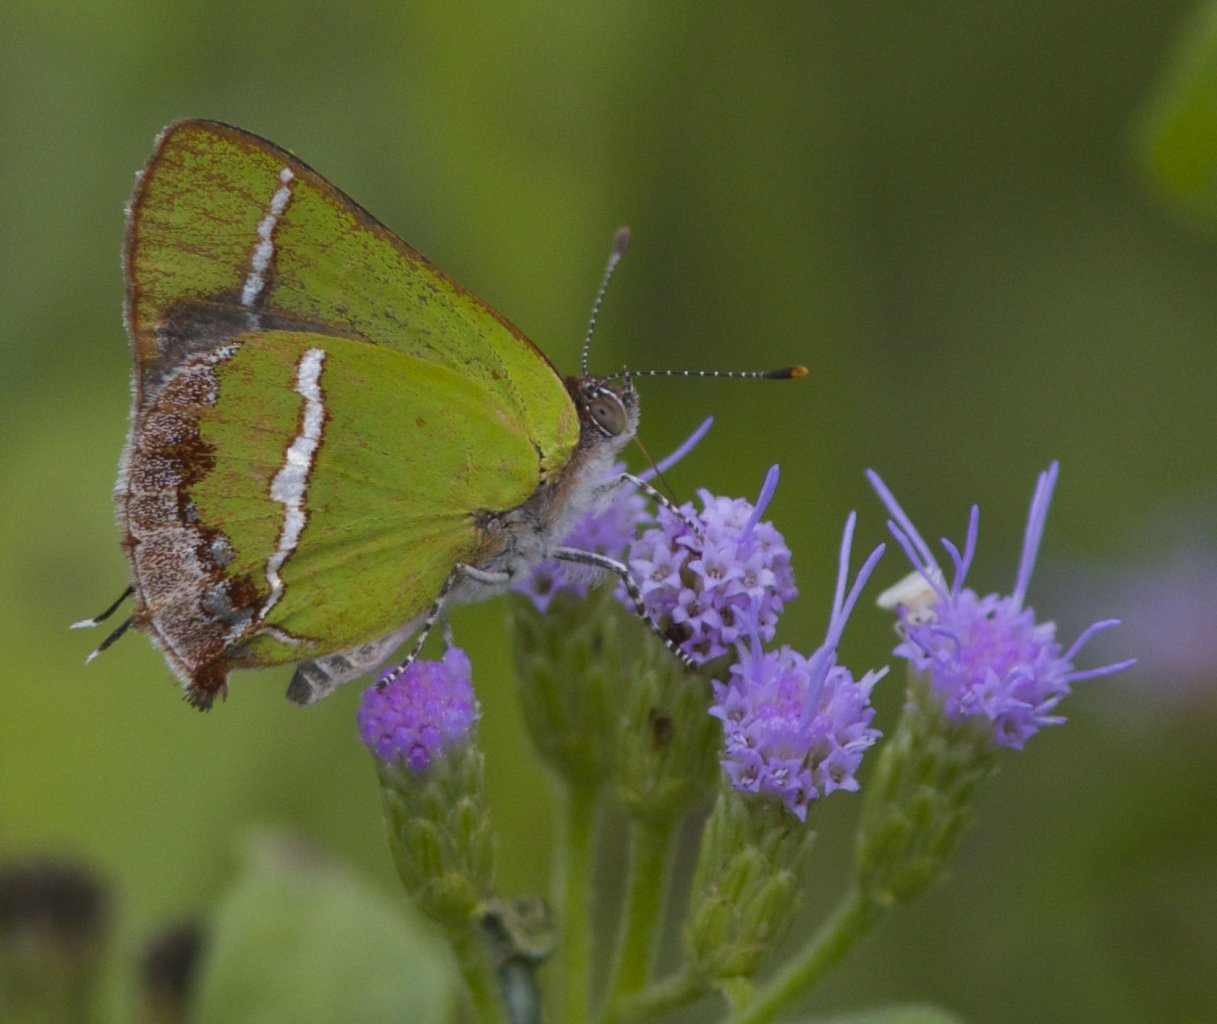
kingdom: Animalia
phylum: Arthropoda
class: Insecta
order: Lepidoptera
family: Lycaenidae
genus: Chlorostrymon
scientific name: Chlorostrymon simaethis
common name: Silver-banded Hairstreak
